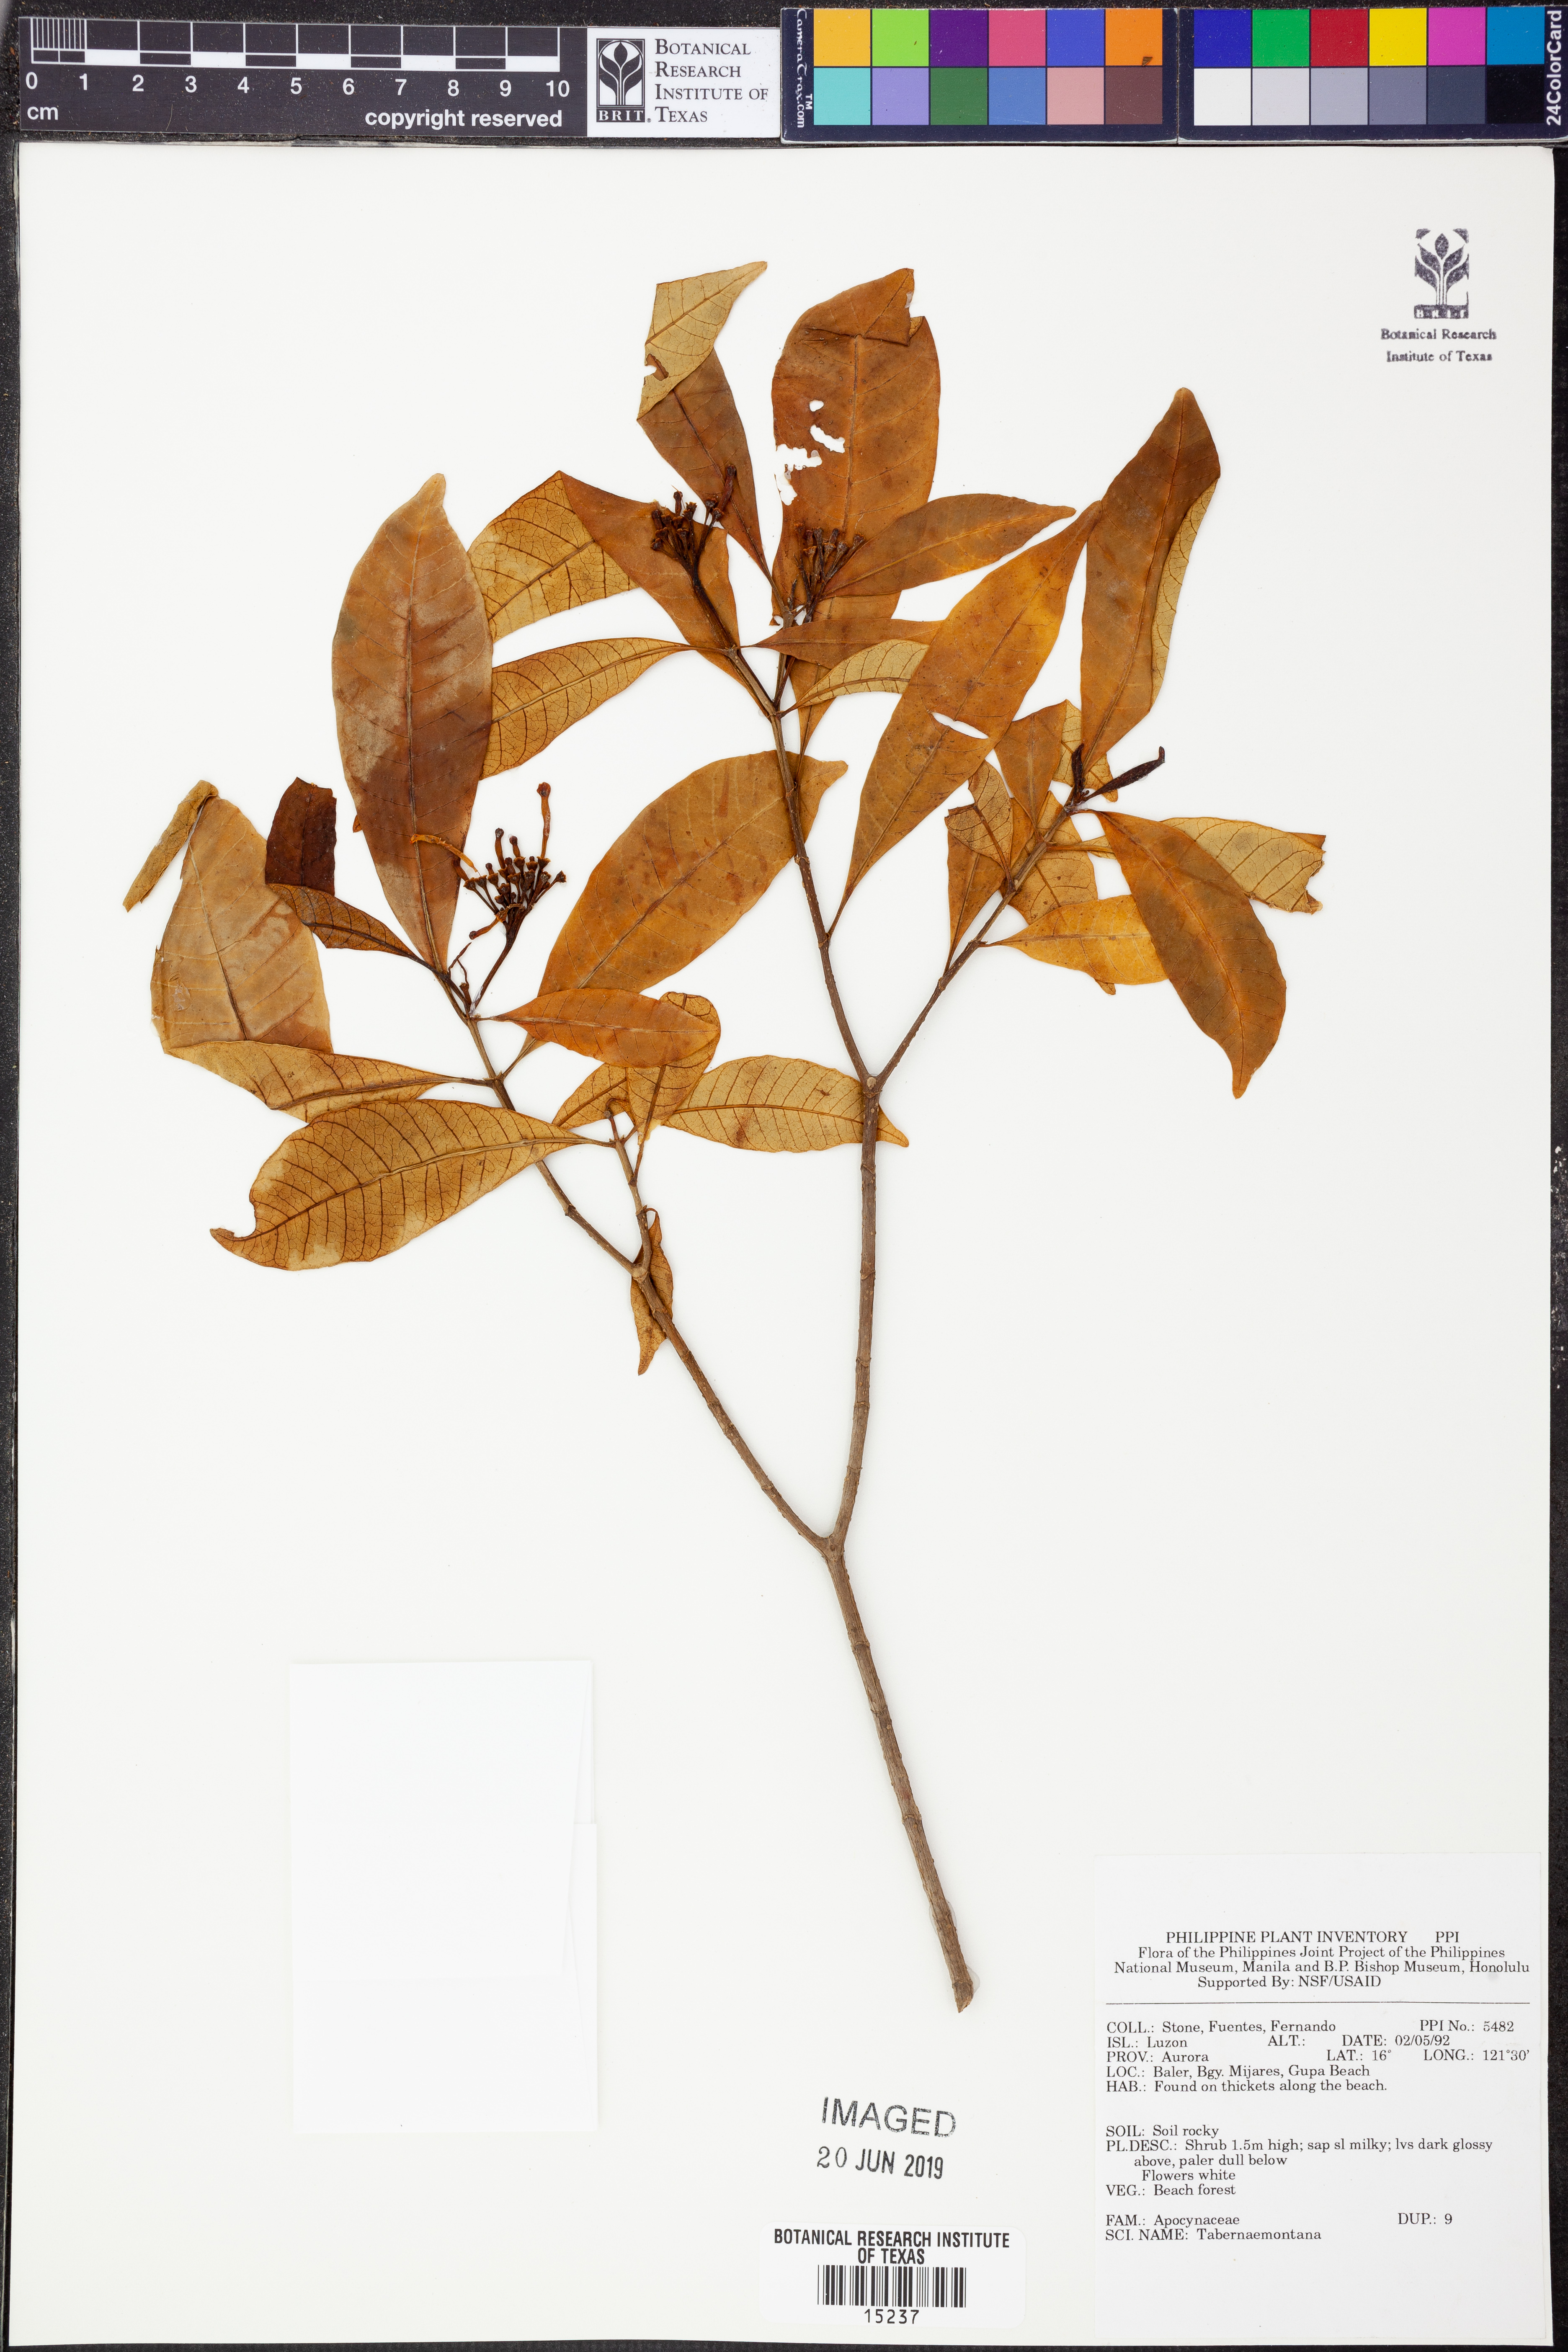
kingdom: Plantae
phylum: Tracheophyta
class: Magnoliopsida
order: Gentianales
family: Apocynaceae
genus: Tabernaemontana
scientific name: Tabernaemontana
